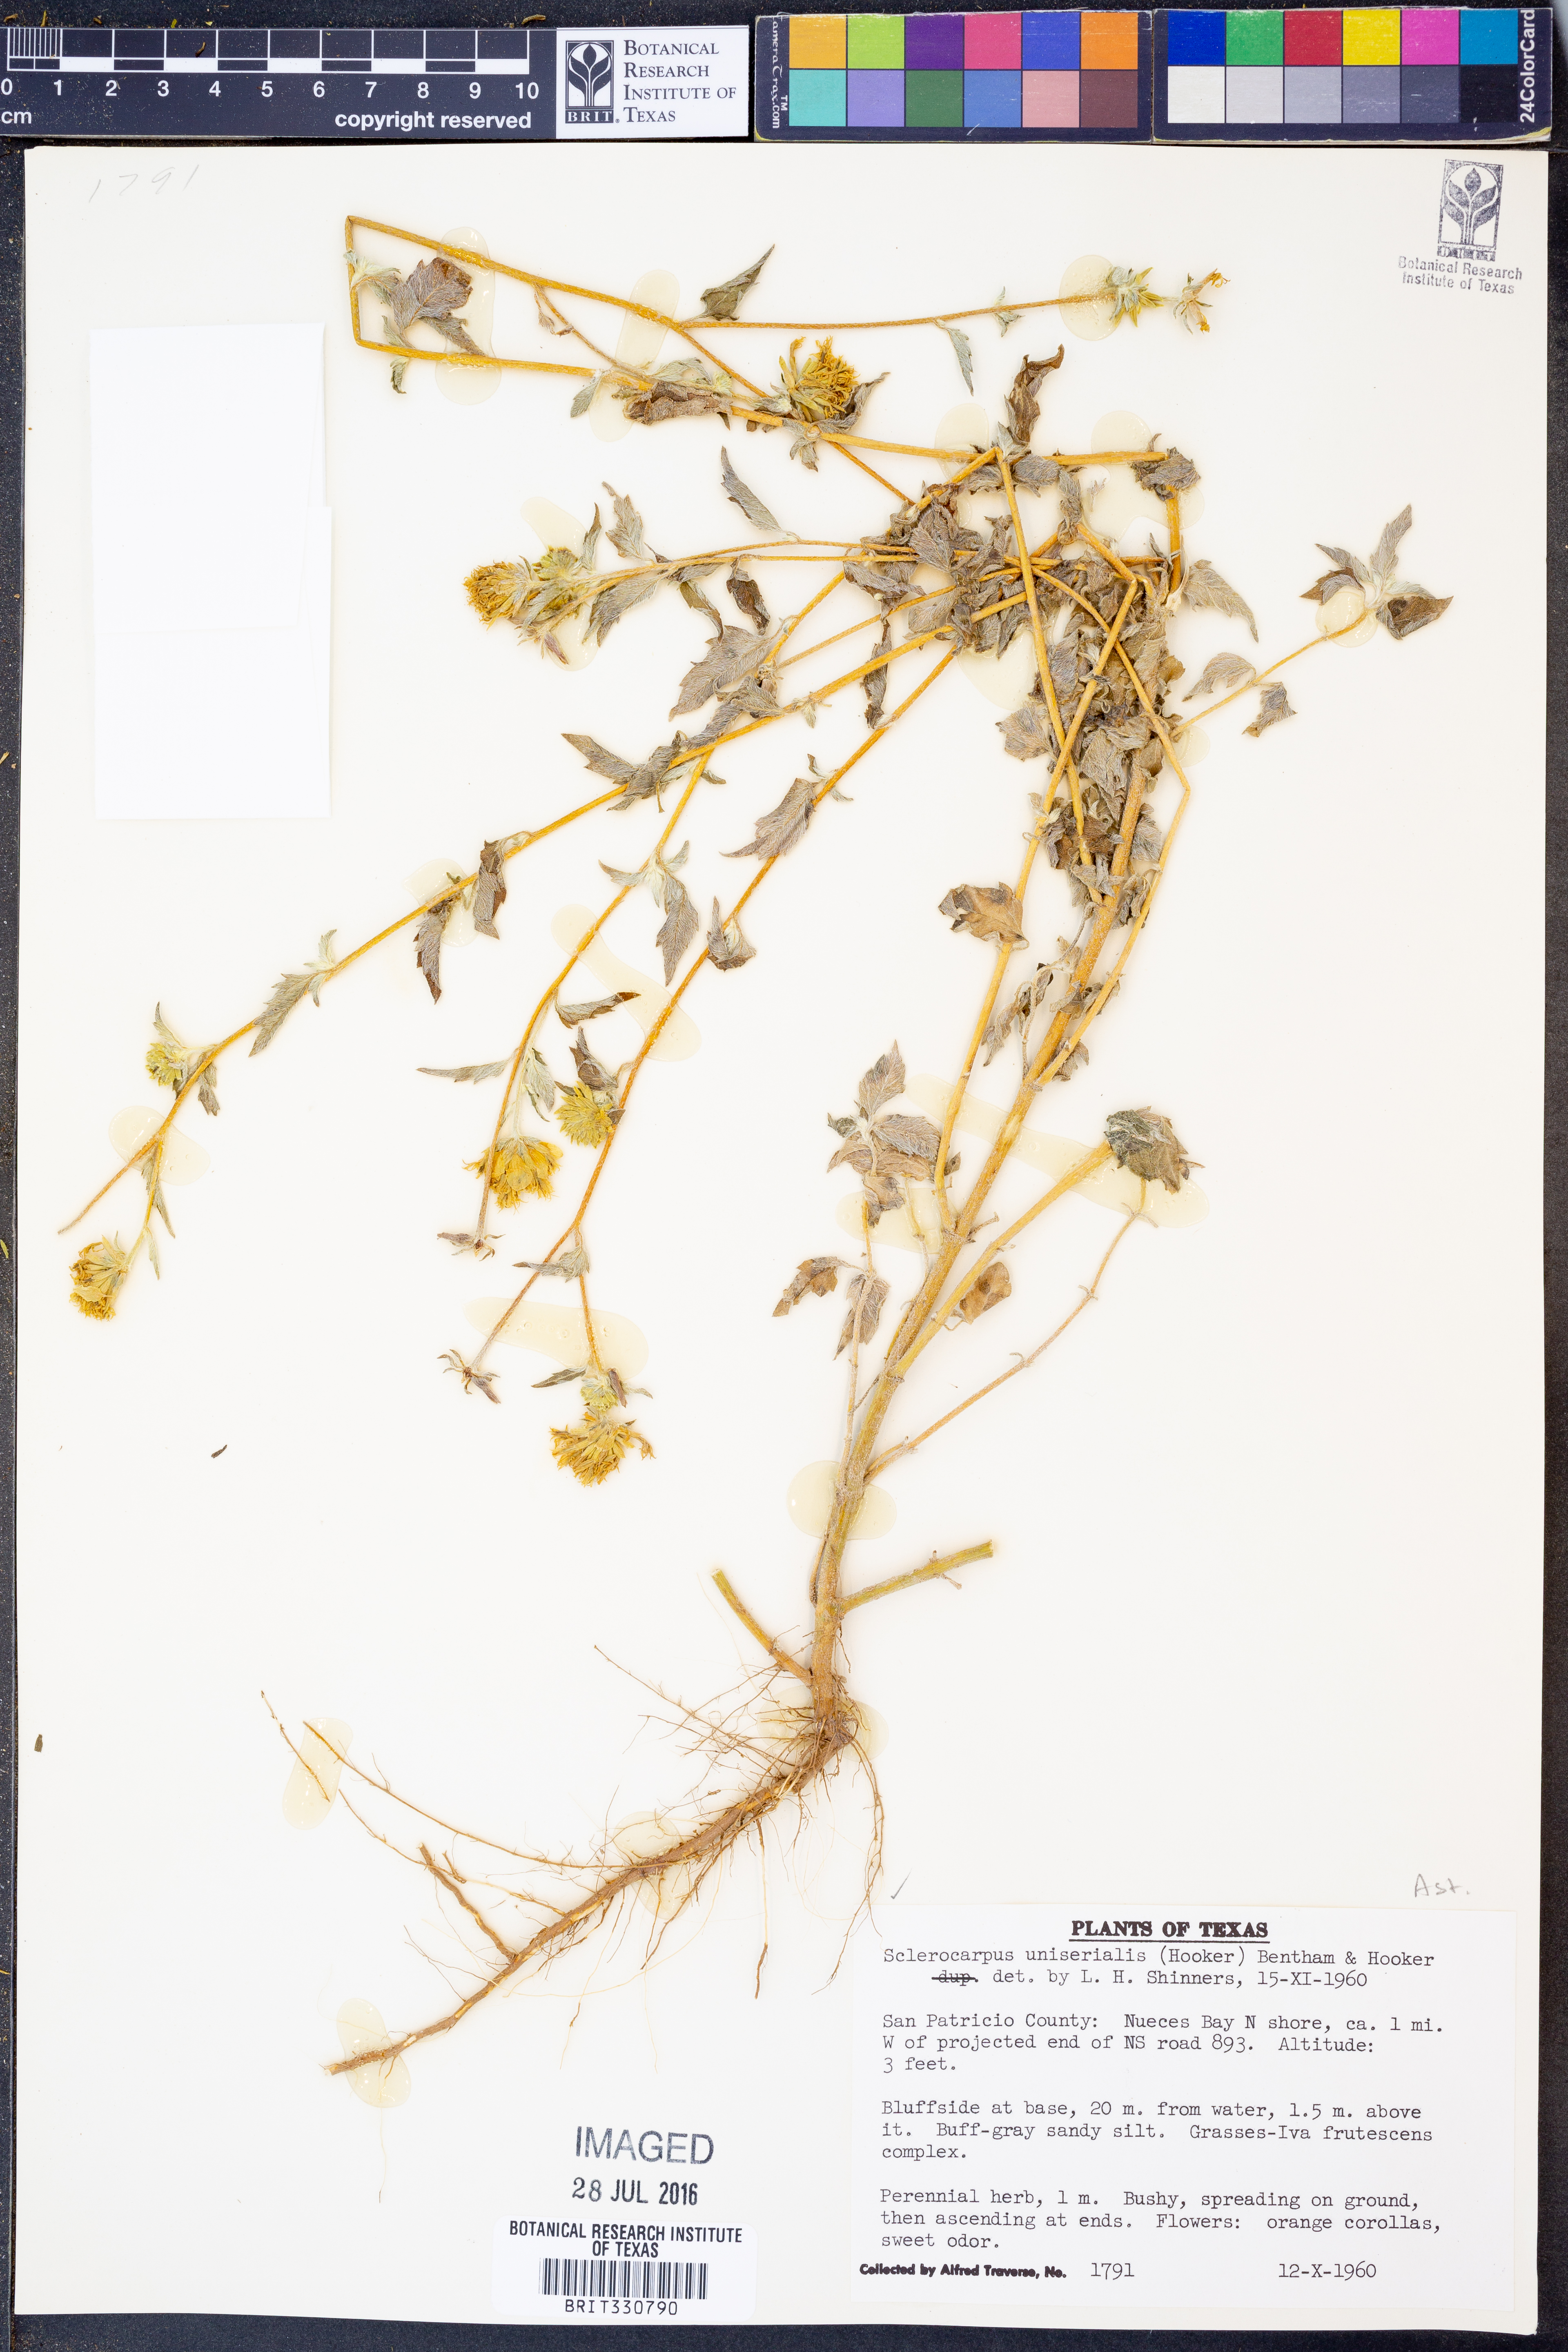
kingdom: Plantae
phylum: Tracheophyta
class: Magnoliopsida
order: Asterales
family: Asteraceae
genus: Sclerocarpus
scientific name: Sclerocarpus uniserialis
